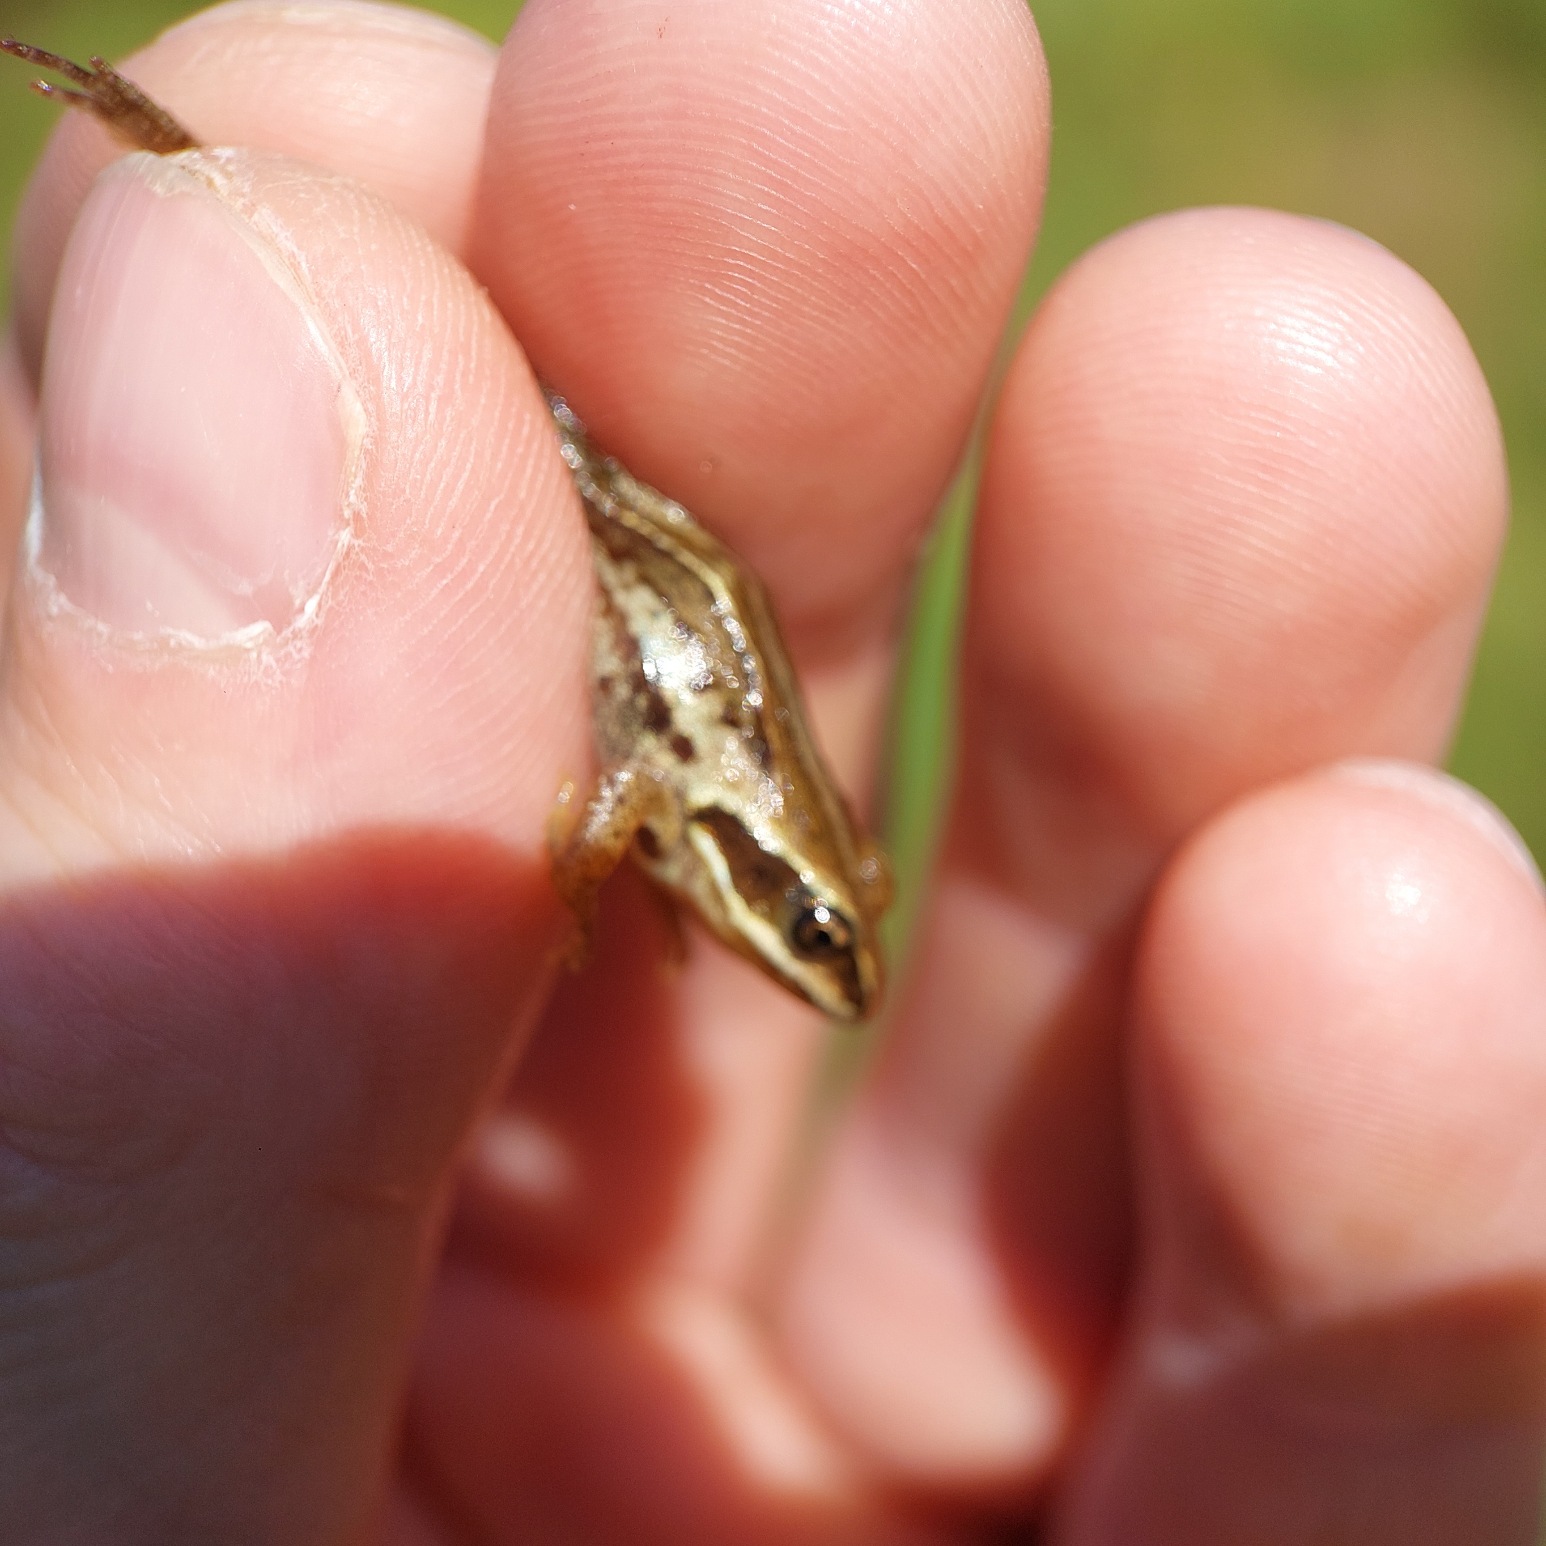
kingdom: Animalia
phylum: Chordata
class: Amphibia
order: Anura
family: Ranidae
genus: Rana
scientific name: Rana arvalis
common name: Spidssnudet frø
